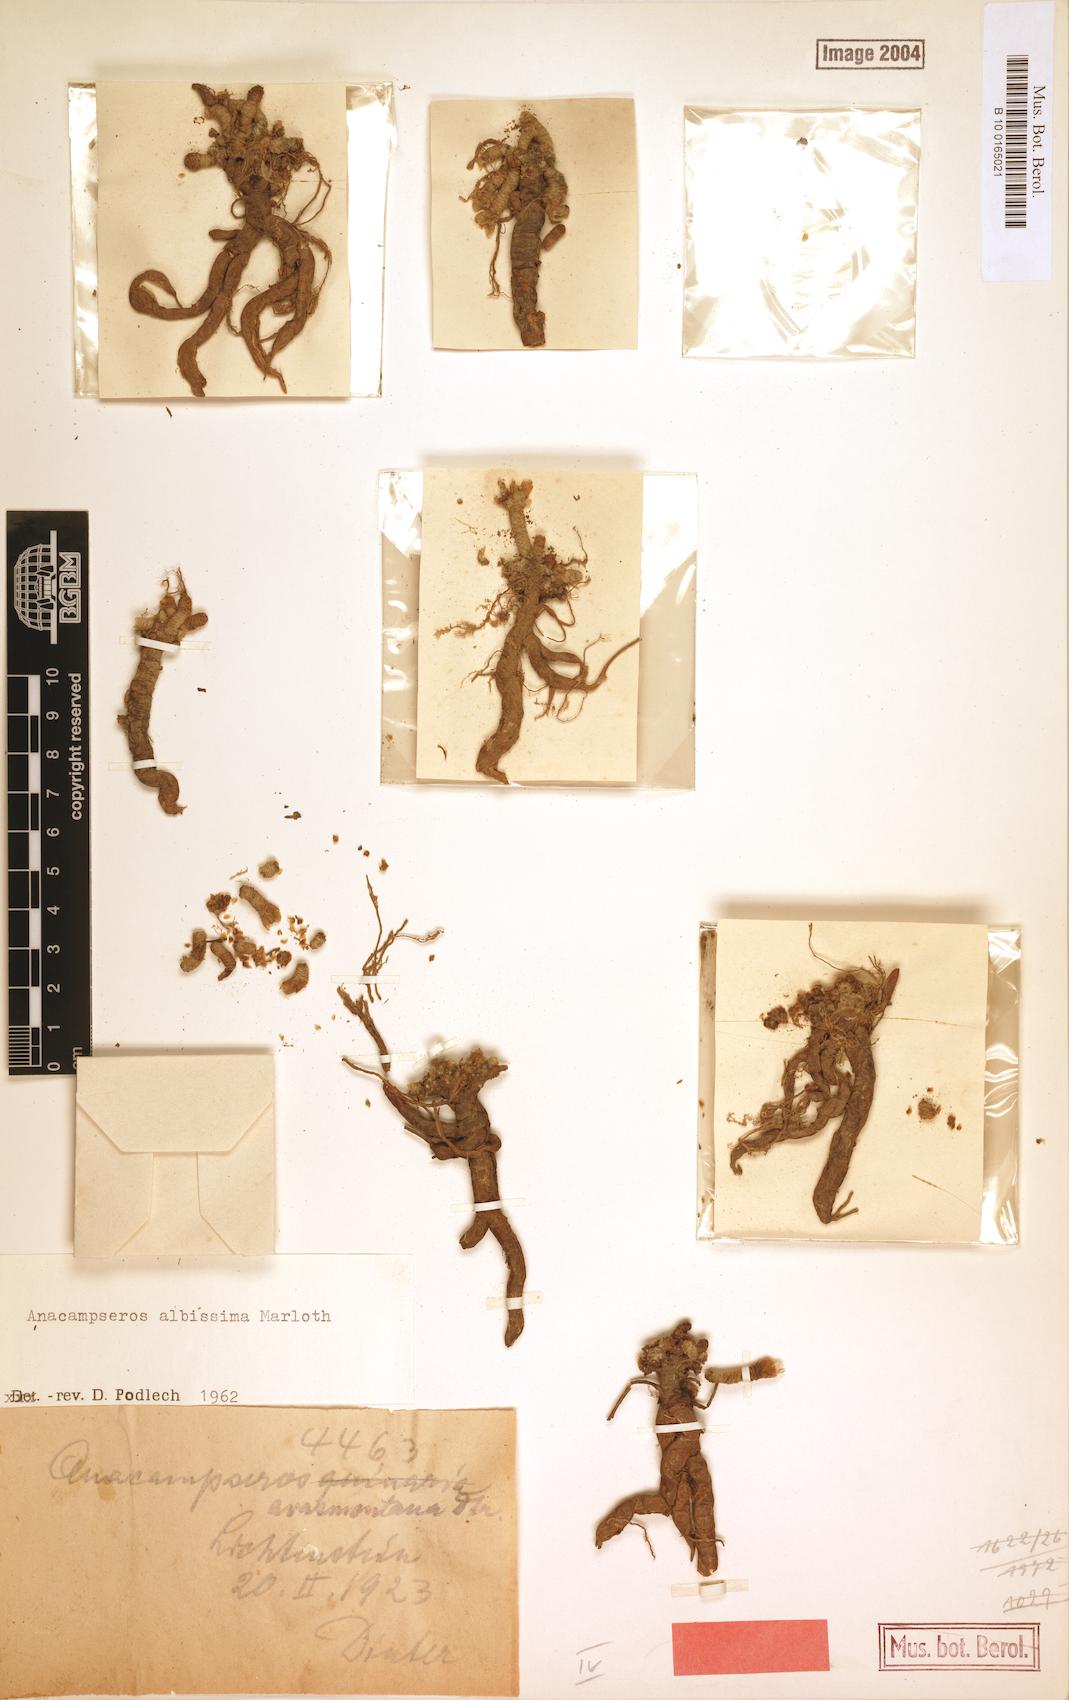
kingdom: Plantae
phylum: Tracheophyta
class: Magnoliopsida
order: Caryophyllales
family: Anacampserotaceae
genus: Avonia
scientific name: Avonia albissima
